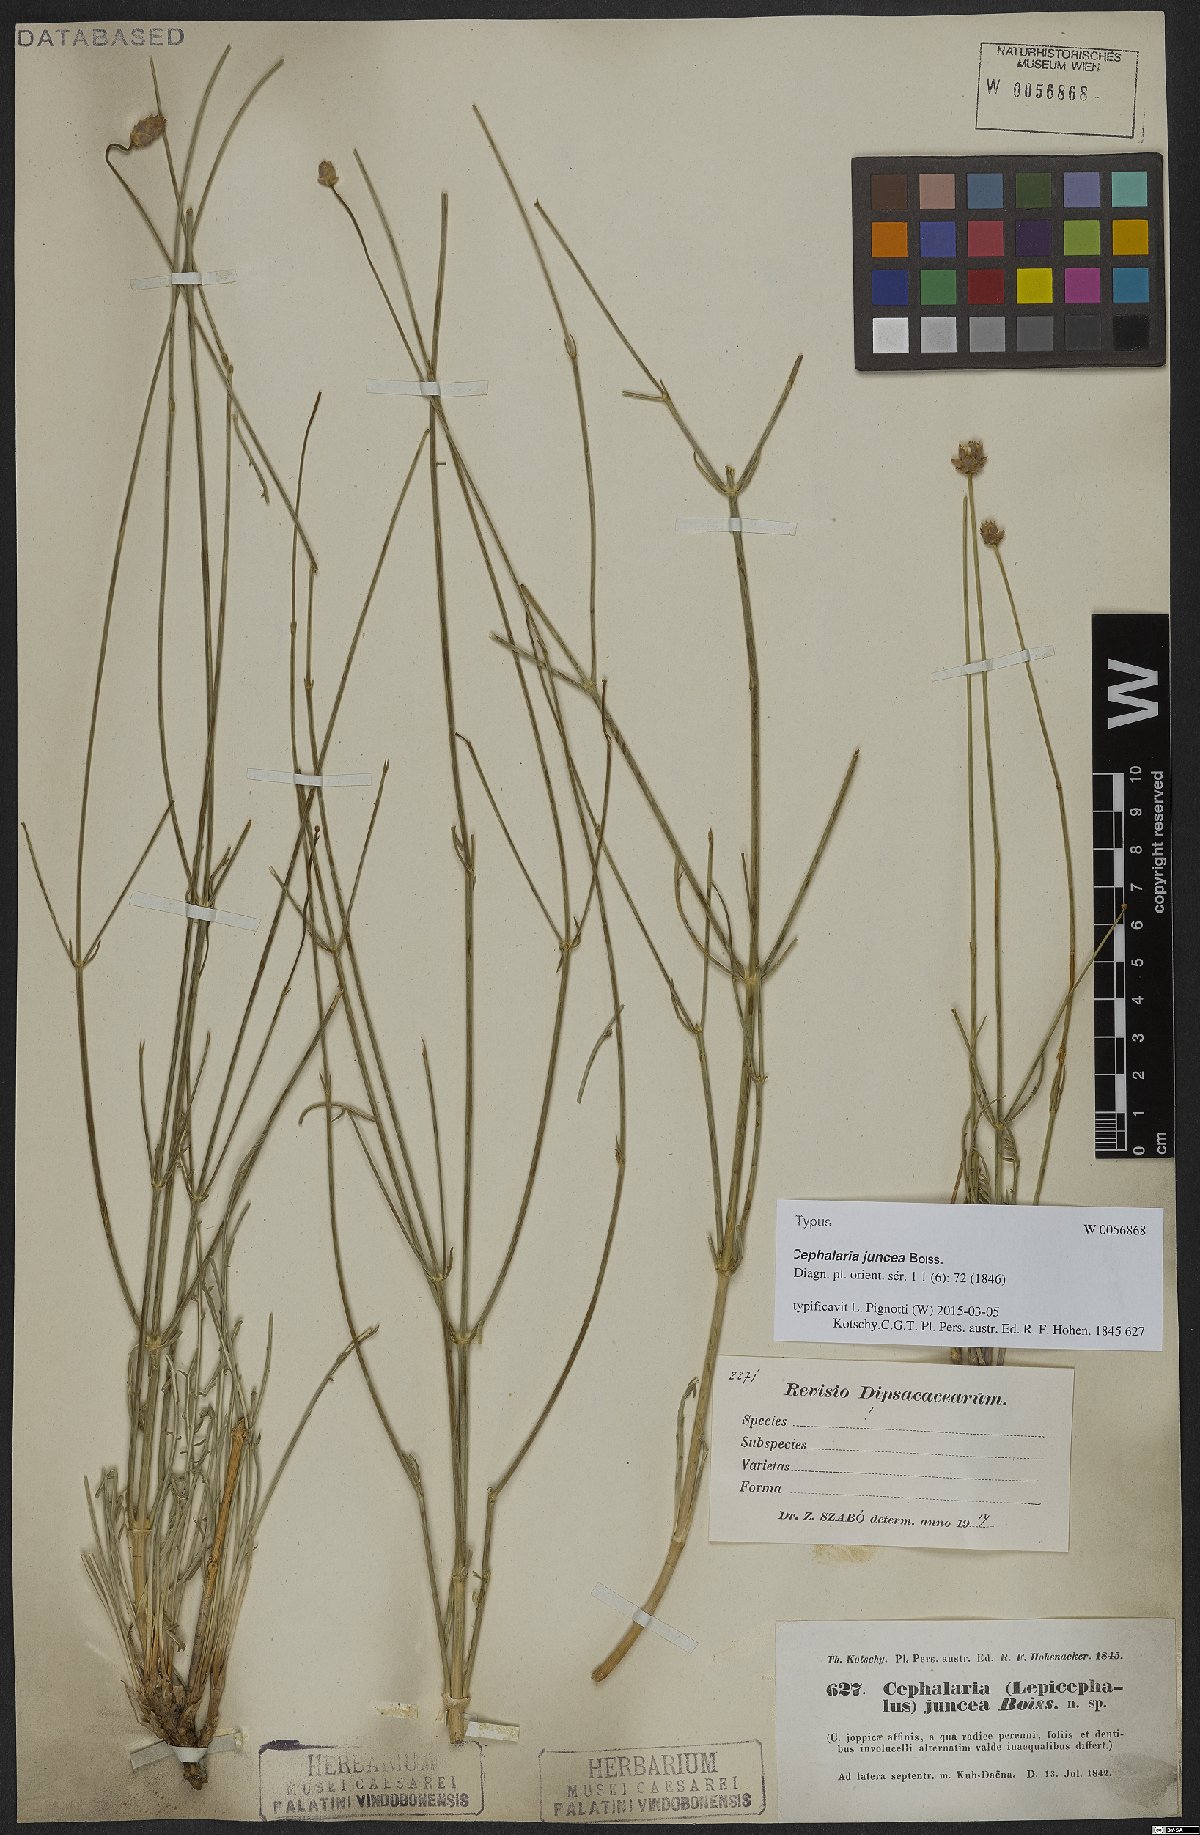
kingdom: Plantae
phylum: Tracheophyta
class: Magnoliopsida
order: Dipsacales
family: Caprifoliaceae
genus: Cephalaria
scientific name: Cephalaria juncea
